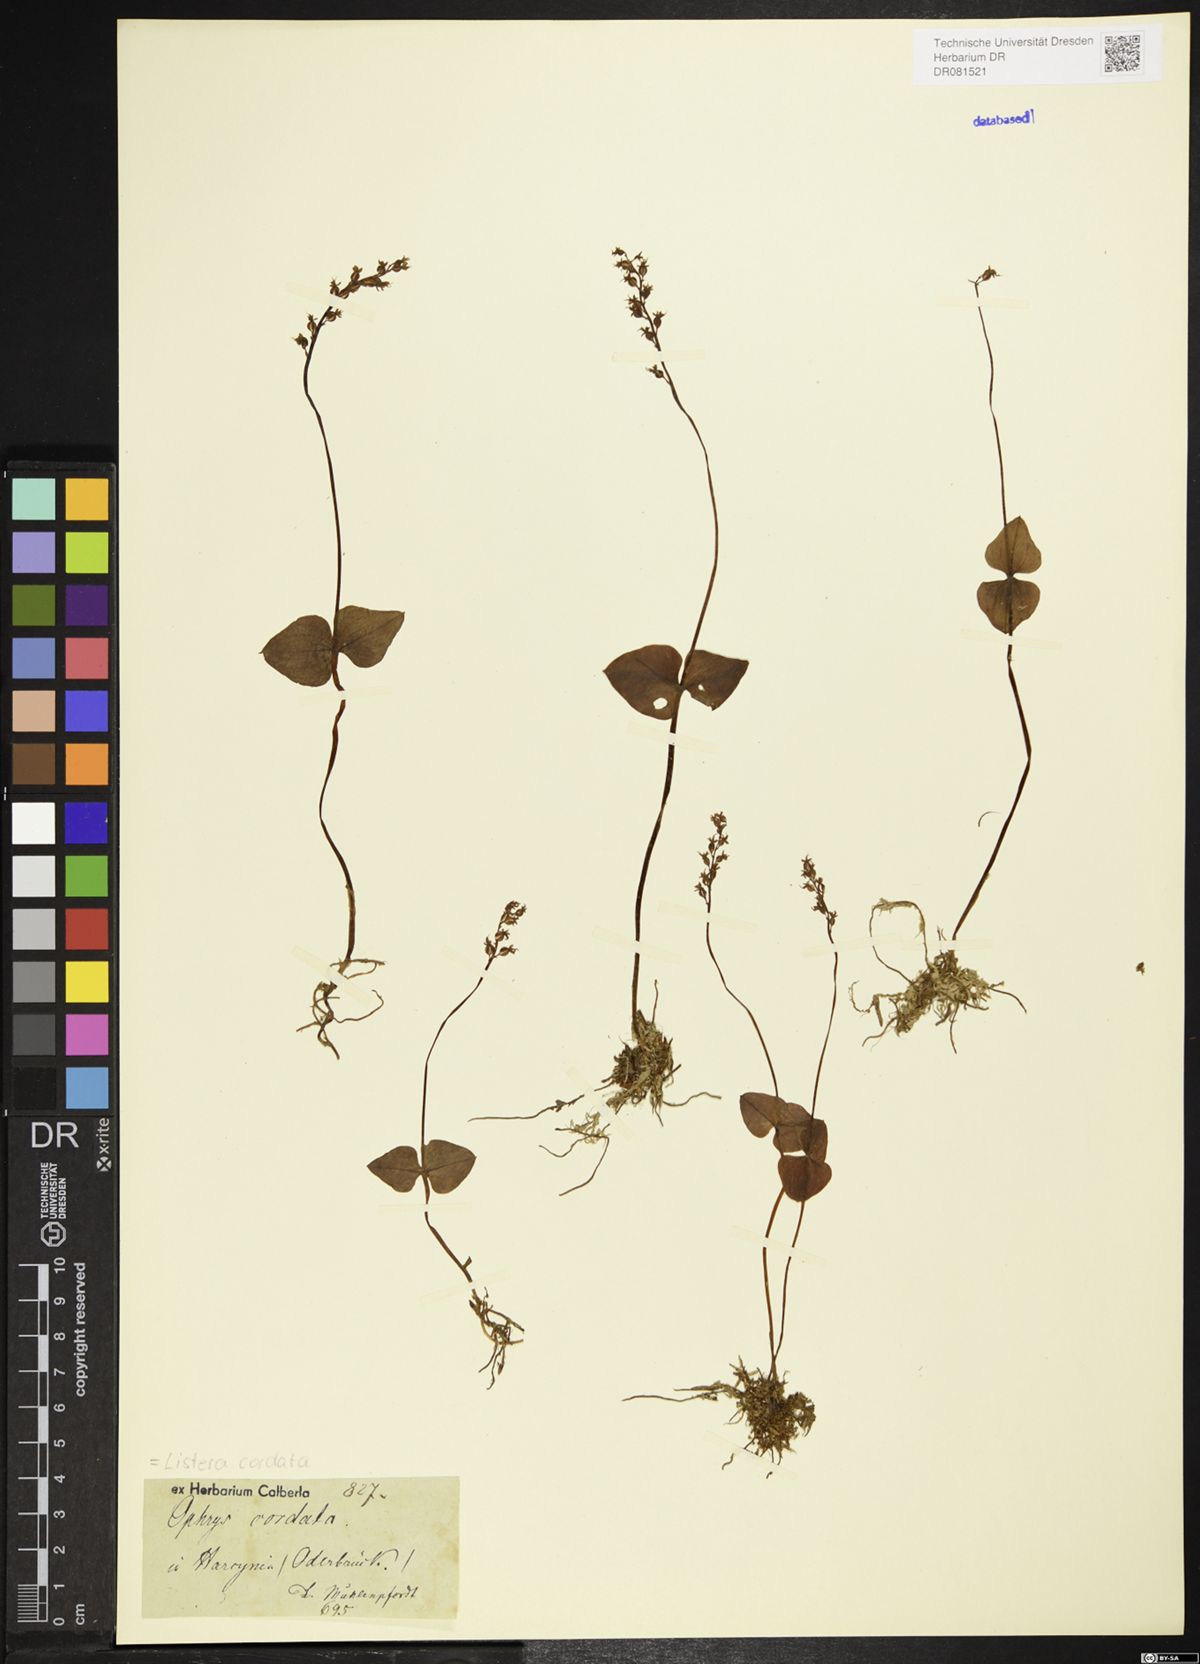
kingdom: Plantae
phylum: Tracheophyta
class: Liliopsida
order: Asparagales
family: Orchidaceae
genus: Neottia
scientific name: Neottia cordata
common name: Lesser twayblade
